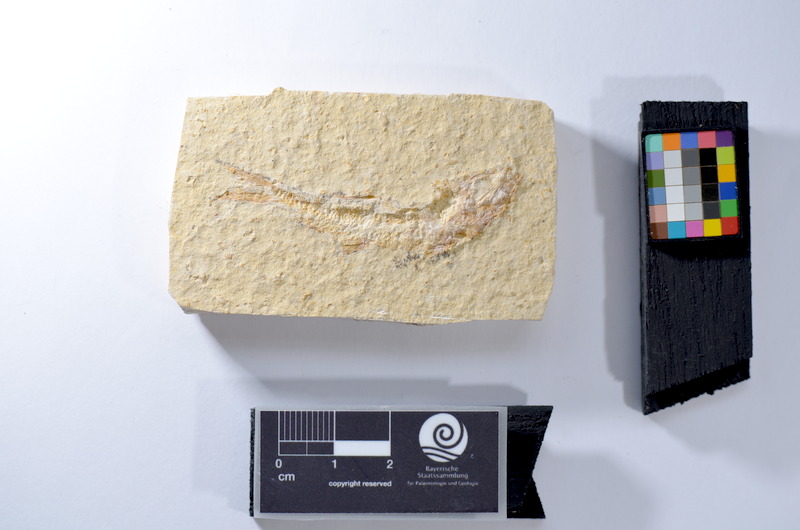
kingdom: Animalia
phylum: Chordata
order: Salmoniformes
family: Orthogonikleithridae
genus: Leptolepides
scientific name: Leptolepides
